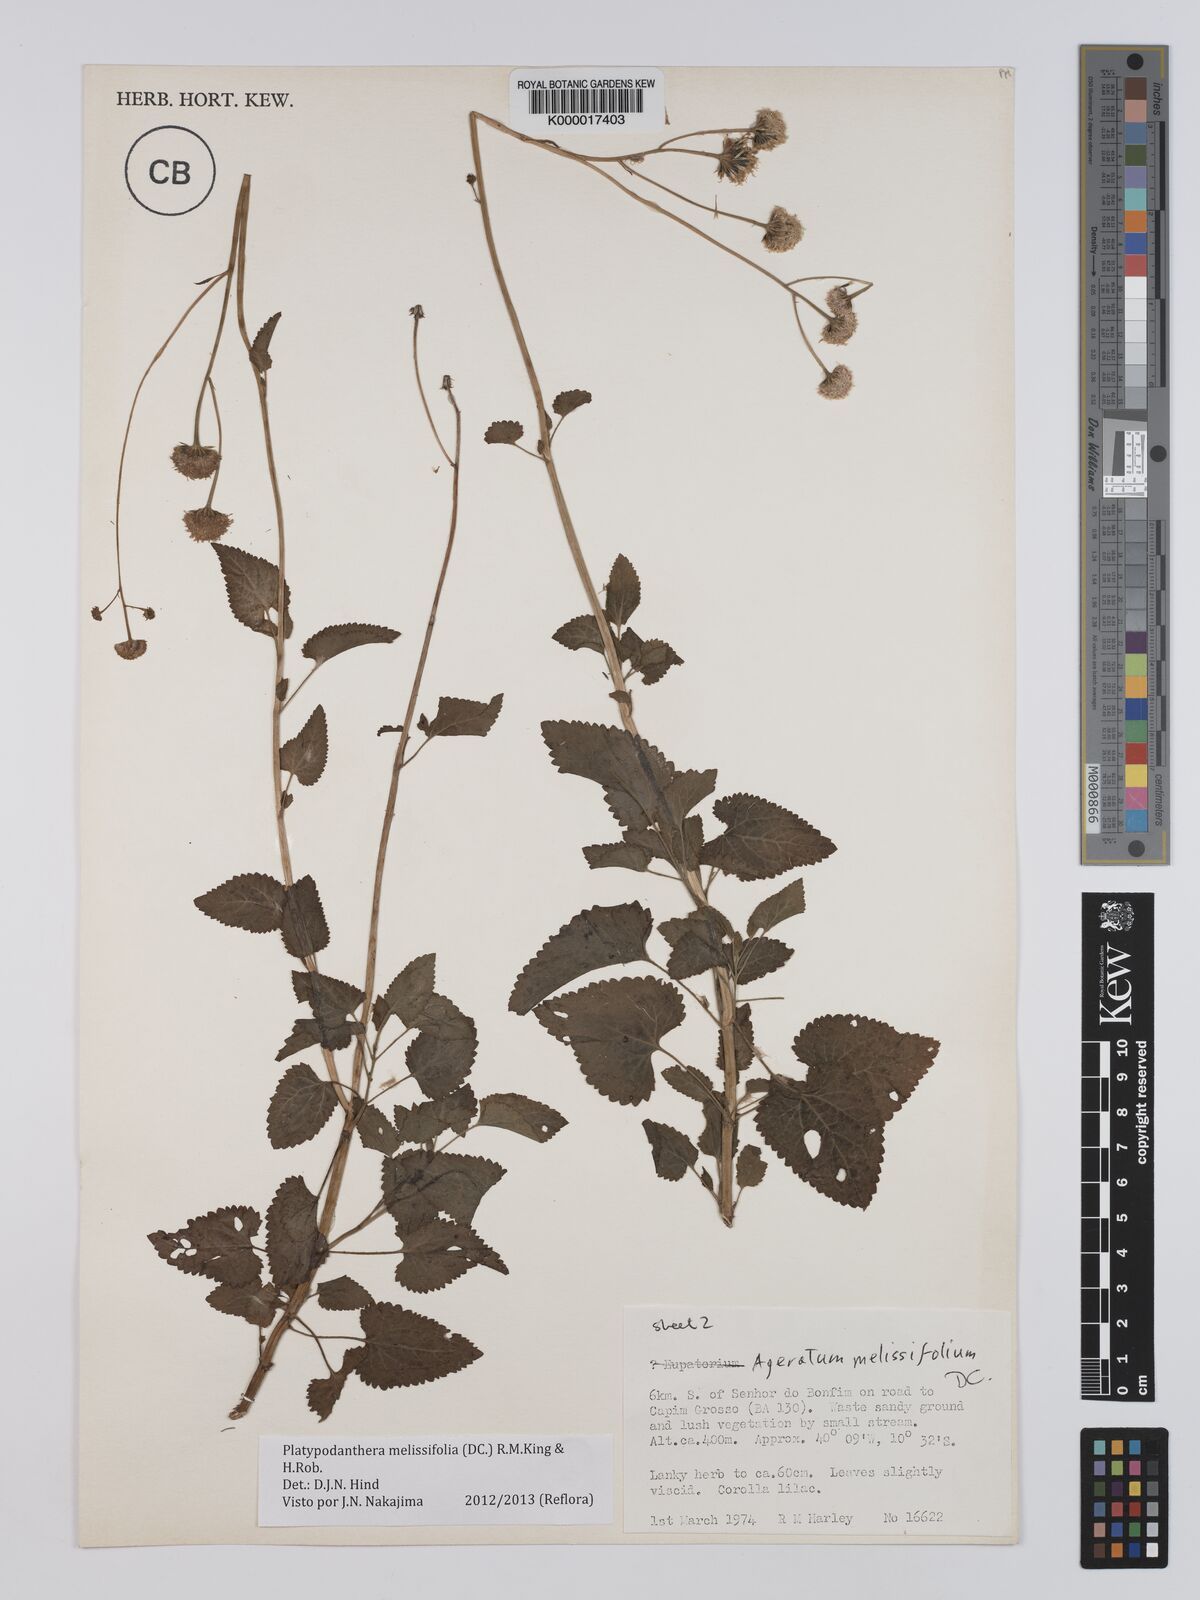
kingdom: Plantae
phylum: Tracheophyta
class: Magnoliopsida
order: Asterales
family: Asteraceae
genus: Platypodanthera
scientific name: Platypodanthera melissifolia
